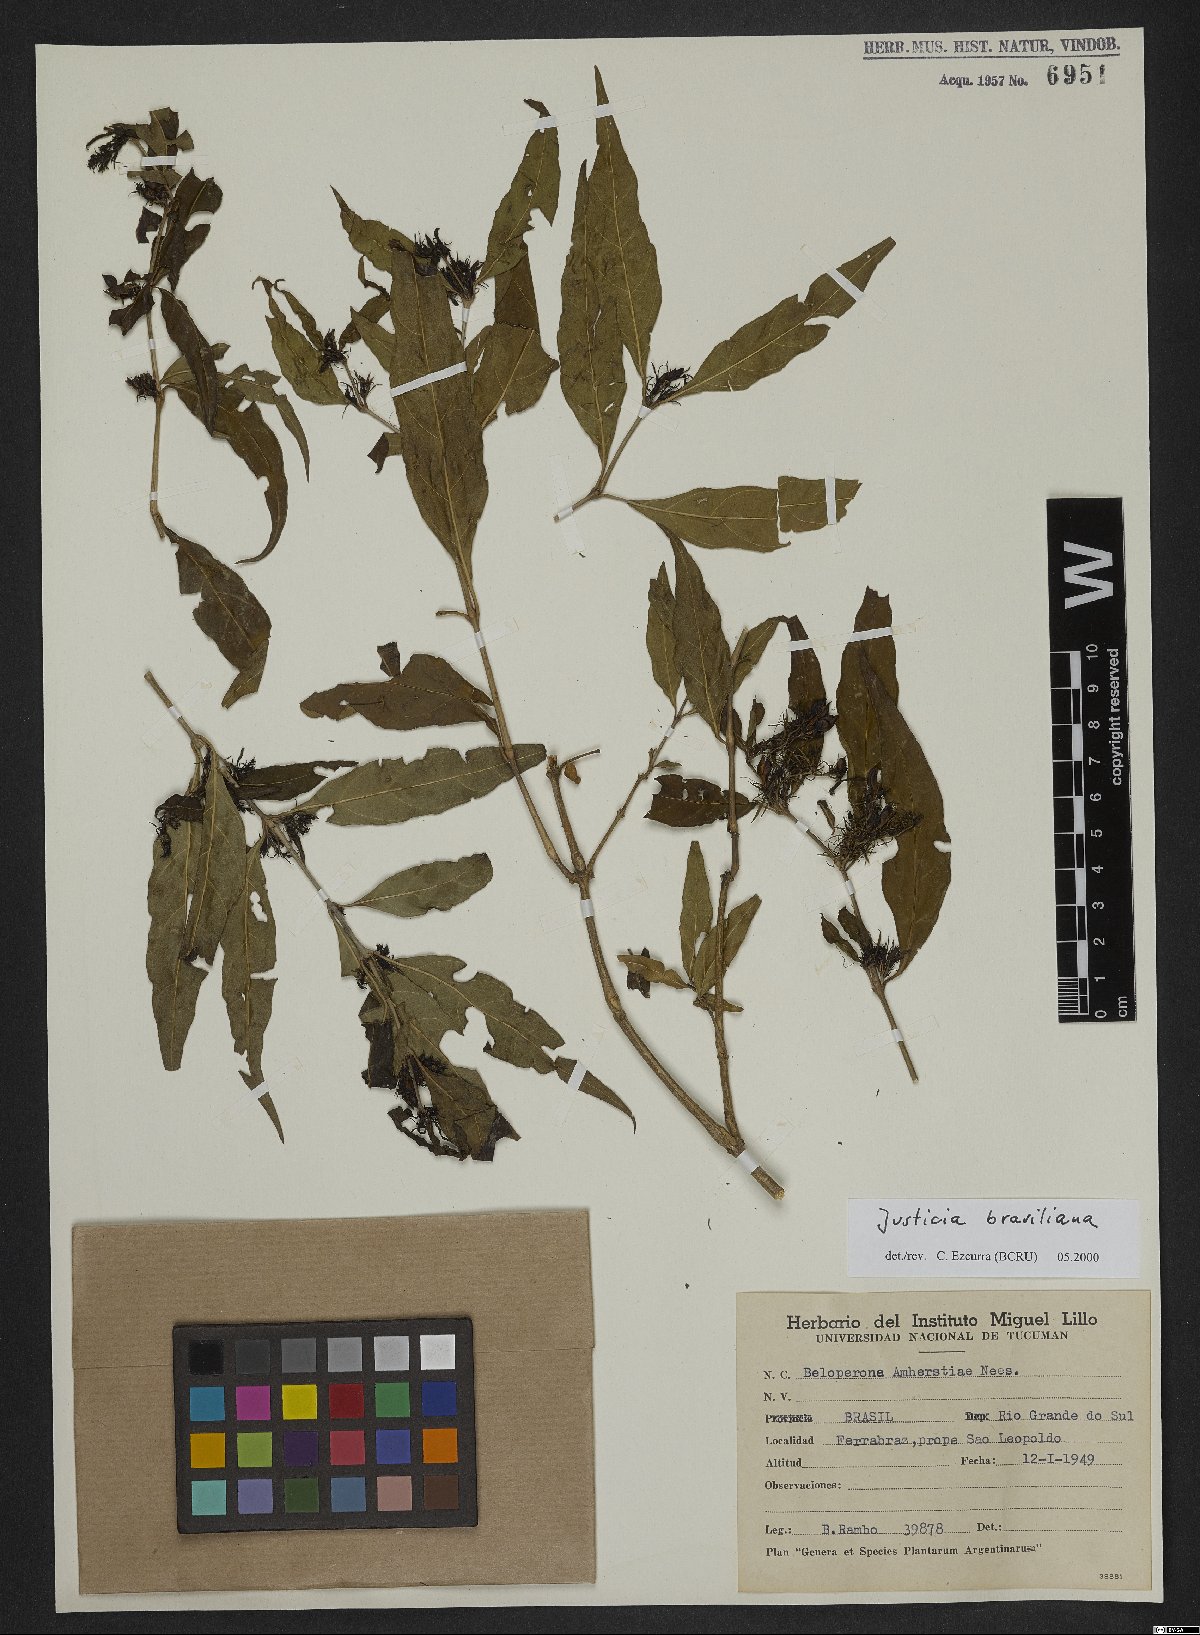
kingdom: Plantae
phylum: Tracheophyta
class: Magnoliopsida
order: Lamiales
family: Acanthaceae
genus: Justicia
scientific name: Justicia brasiliana
